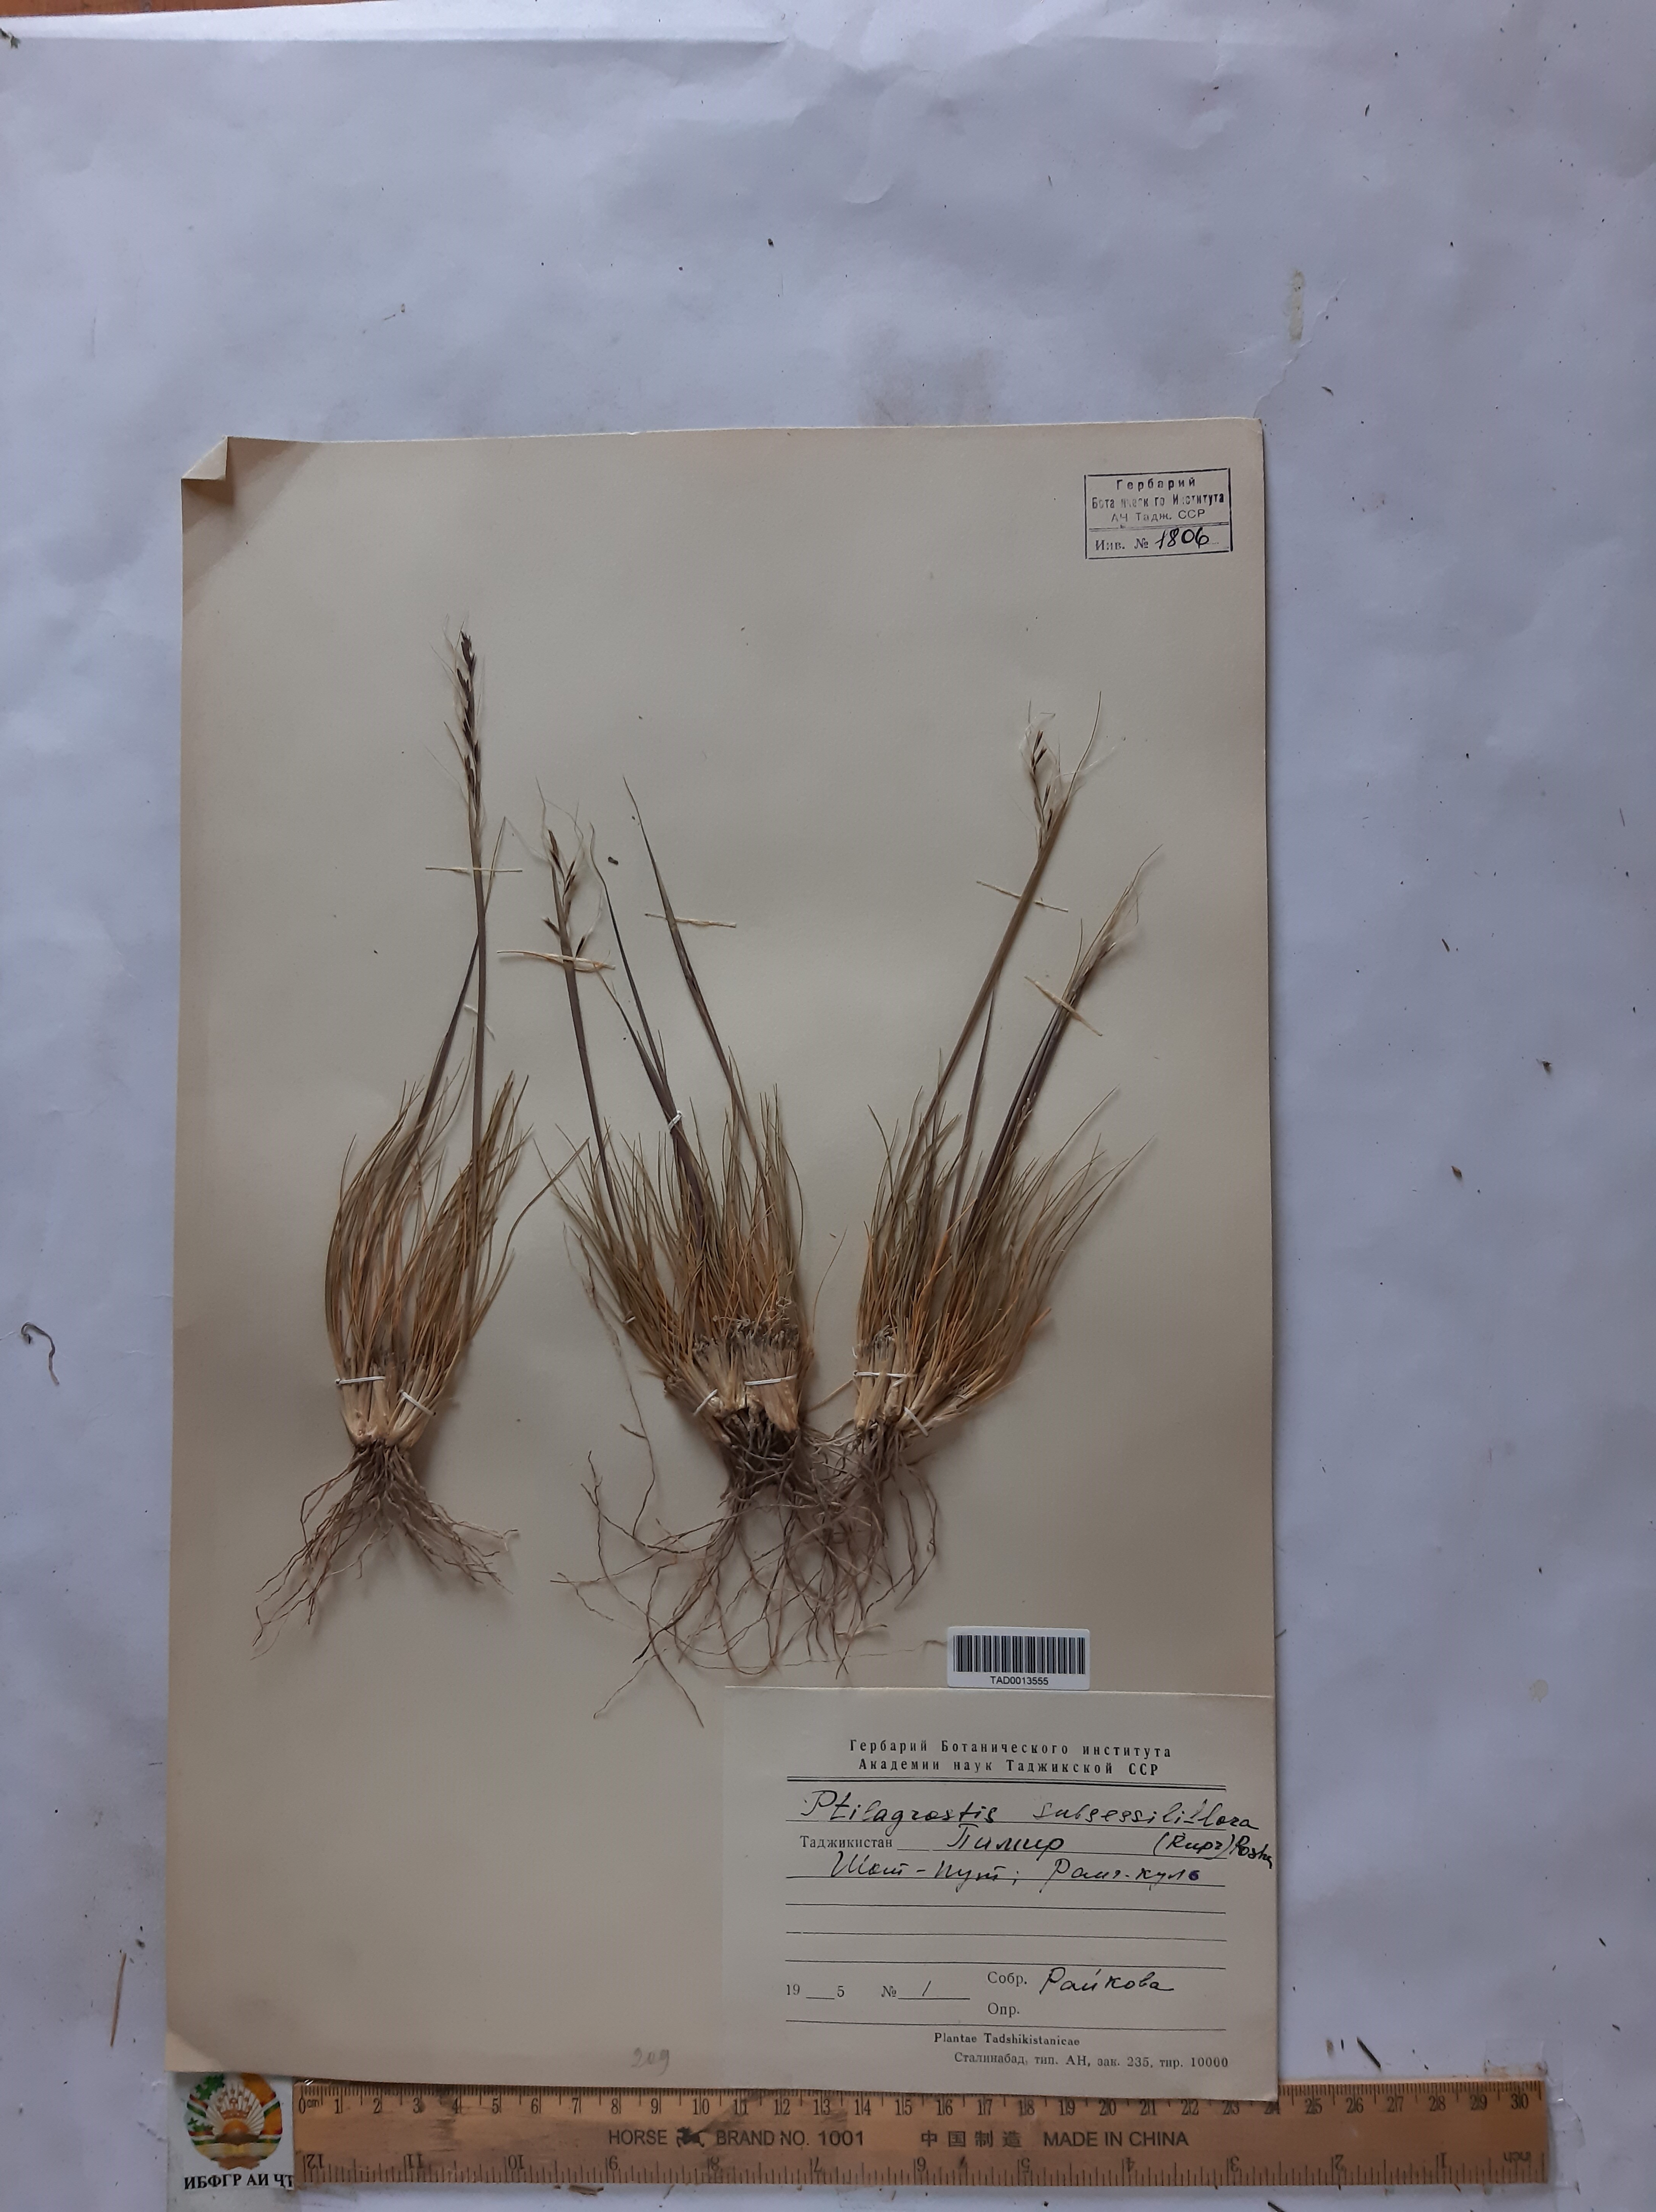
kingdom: Plantae
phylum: Tracheophyta
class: Liliopsida
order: Poales
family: Poaceae
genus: Stipa
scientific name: Stipa subsessiliflora
